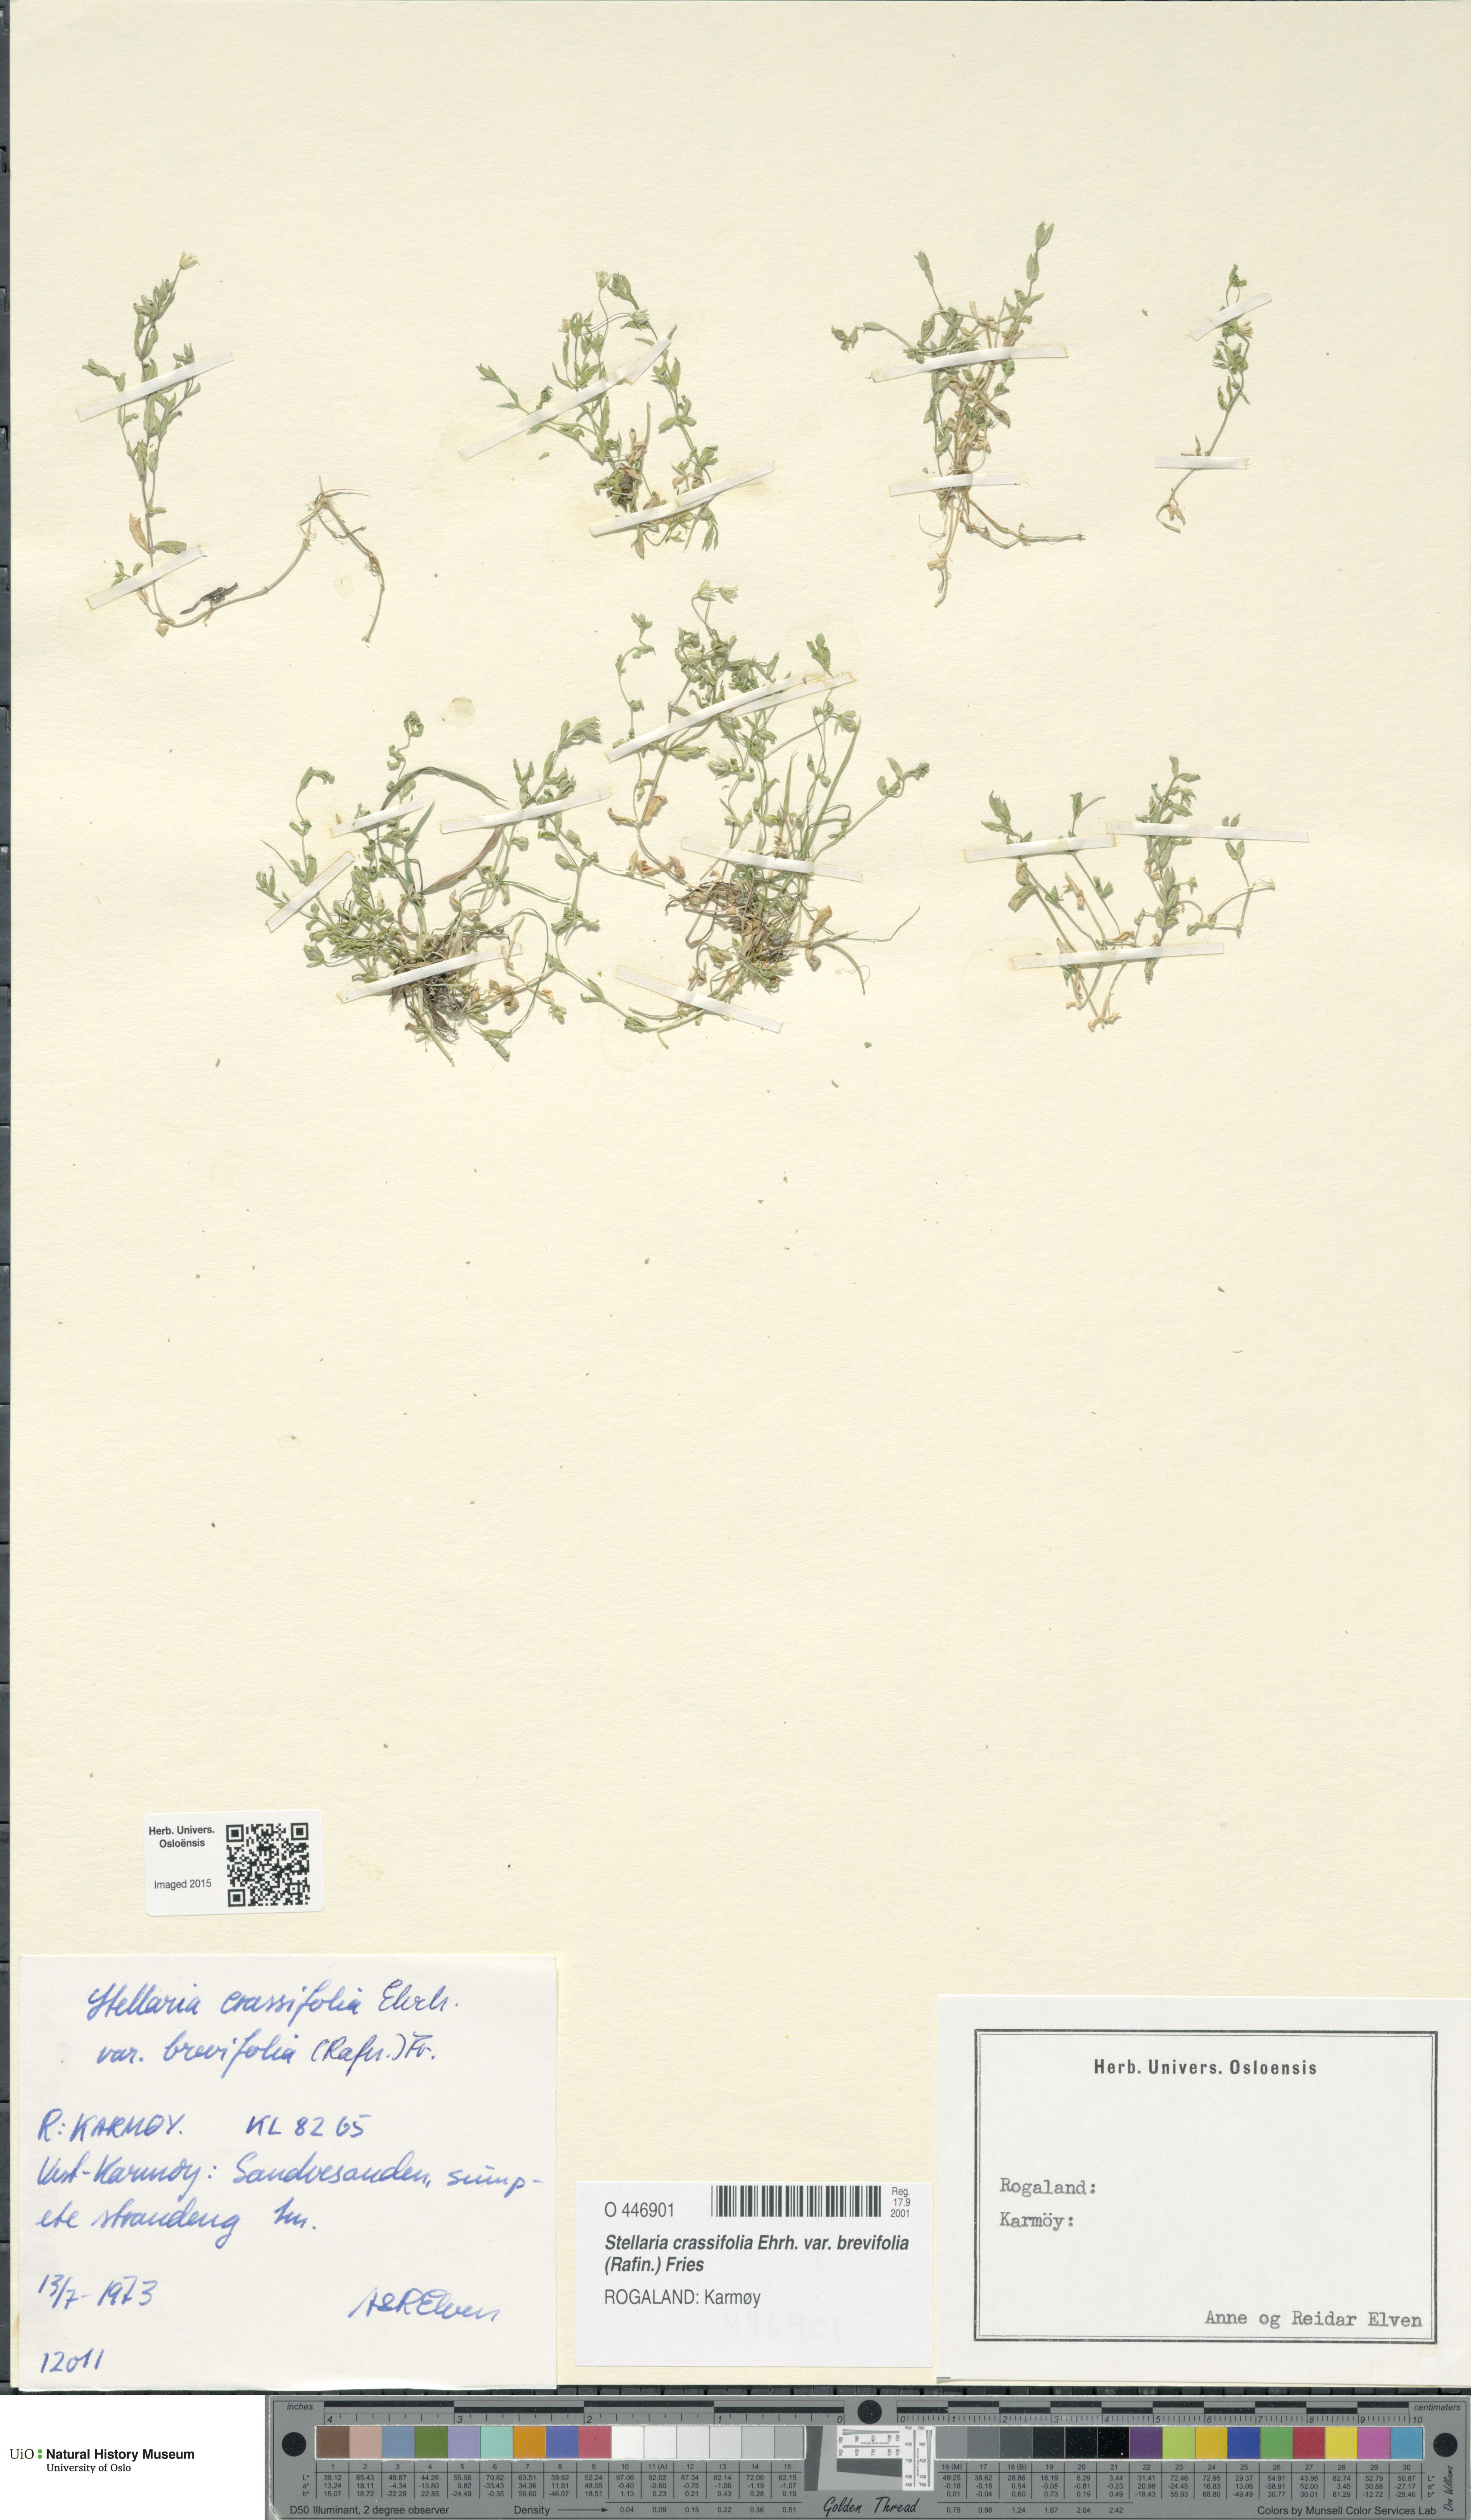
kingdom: Plantae
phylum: Tracheophyta
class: Magnoliopsida
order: Caryophyllales
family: Caryophyllaceae
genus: Stellaria
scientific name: Stellaria crassifolia
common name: Fleshy starwort
